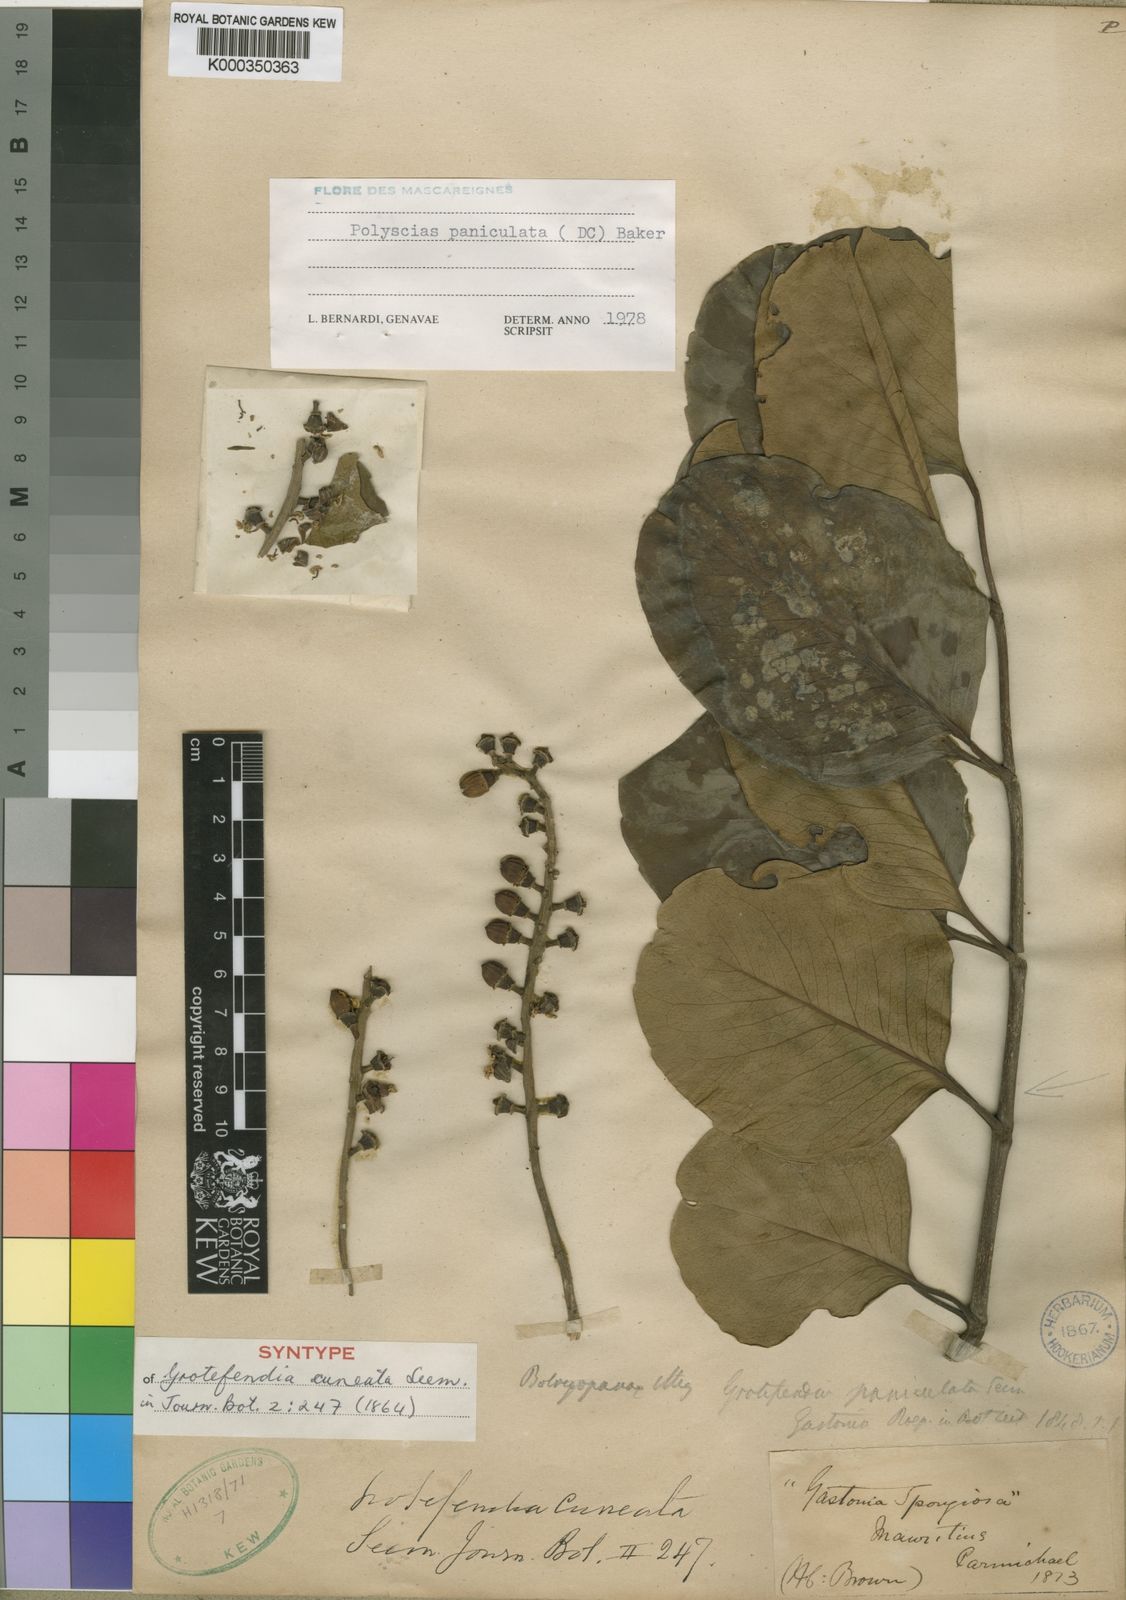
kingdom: Plantae
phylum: Tracheophyta
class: Magnoliopsida
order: Apiales
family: Araliaceae
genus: Polyscias
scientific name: Polyscias paniculata
